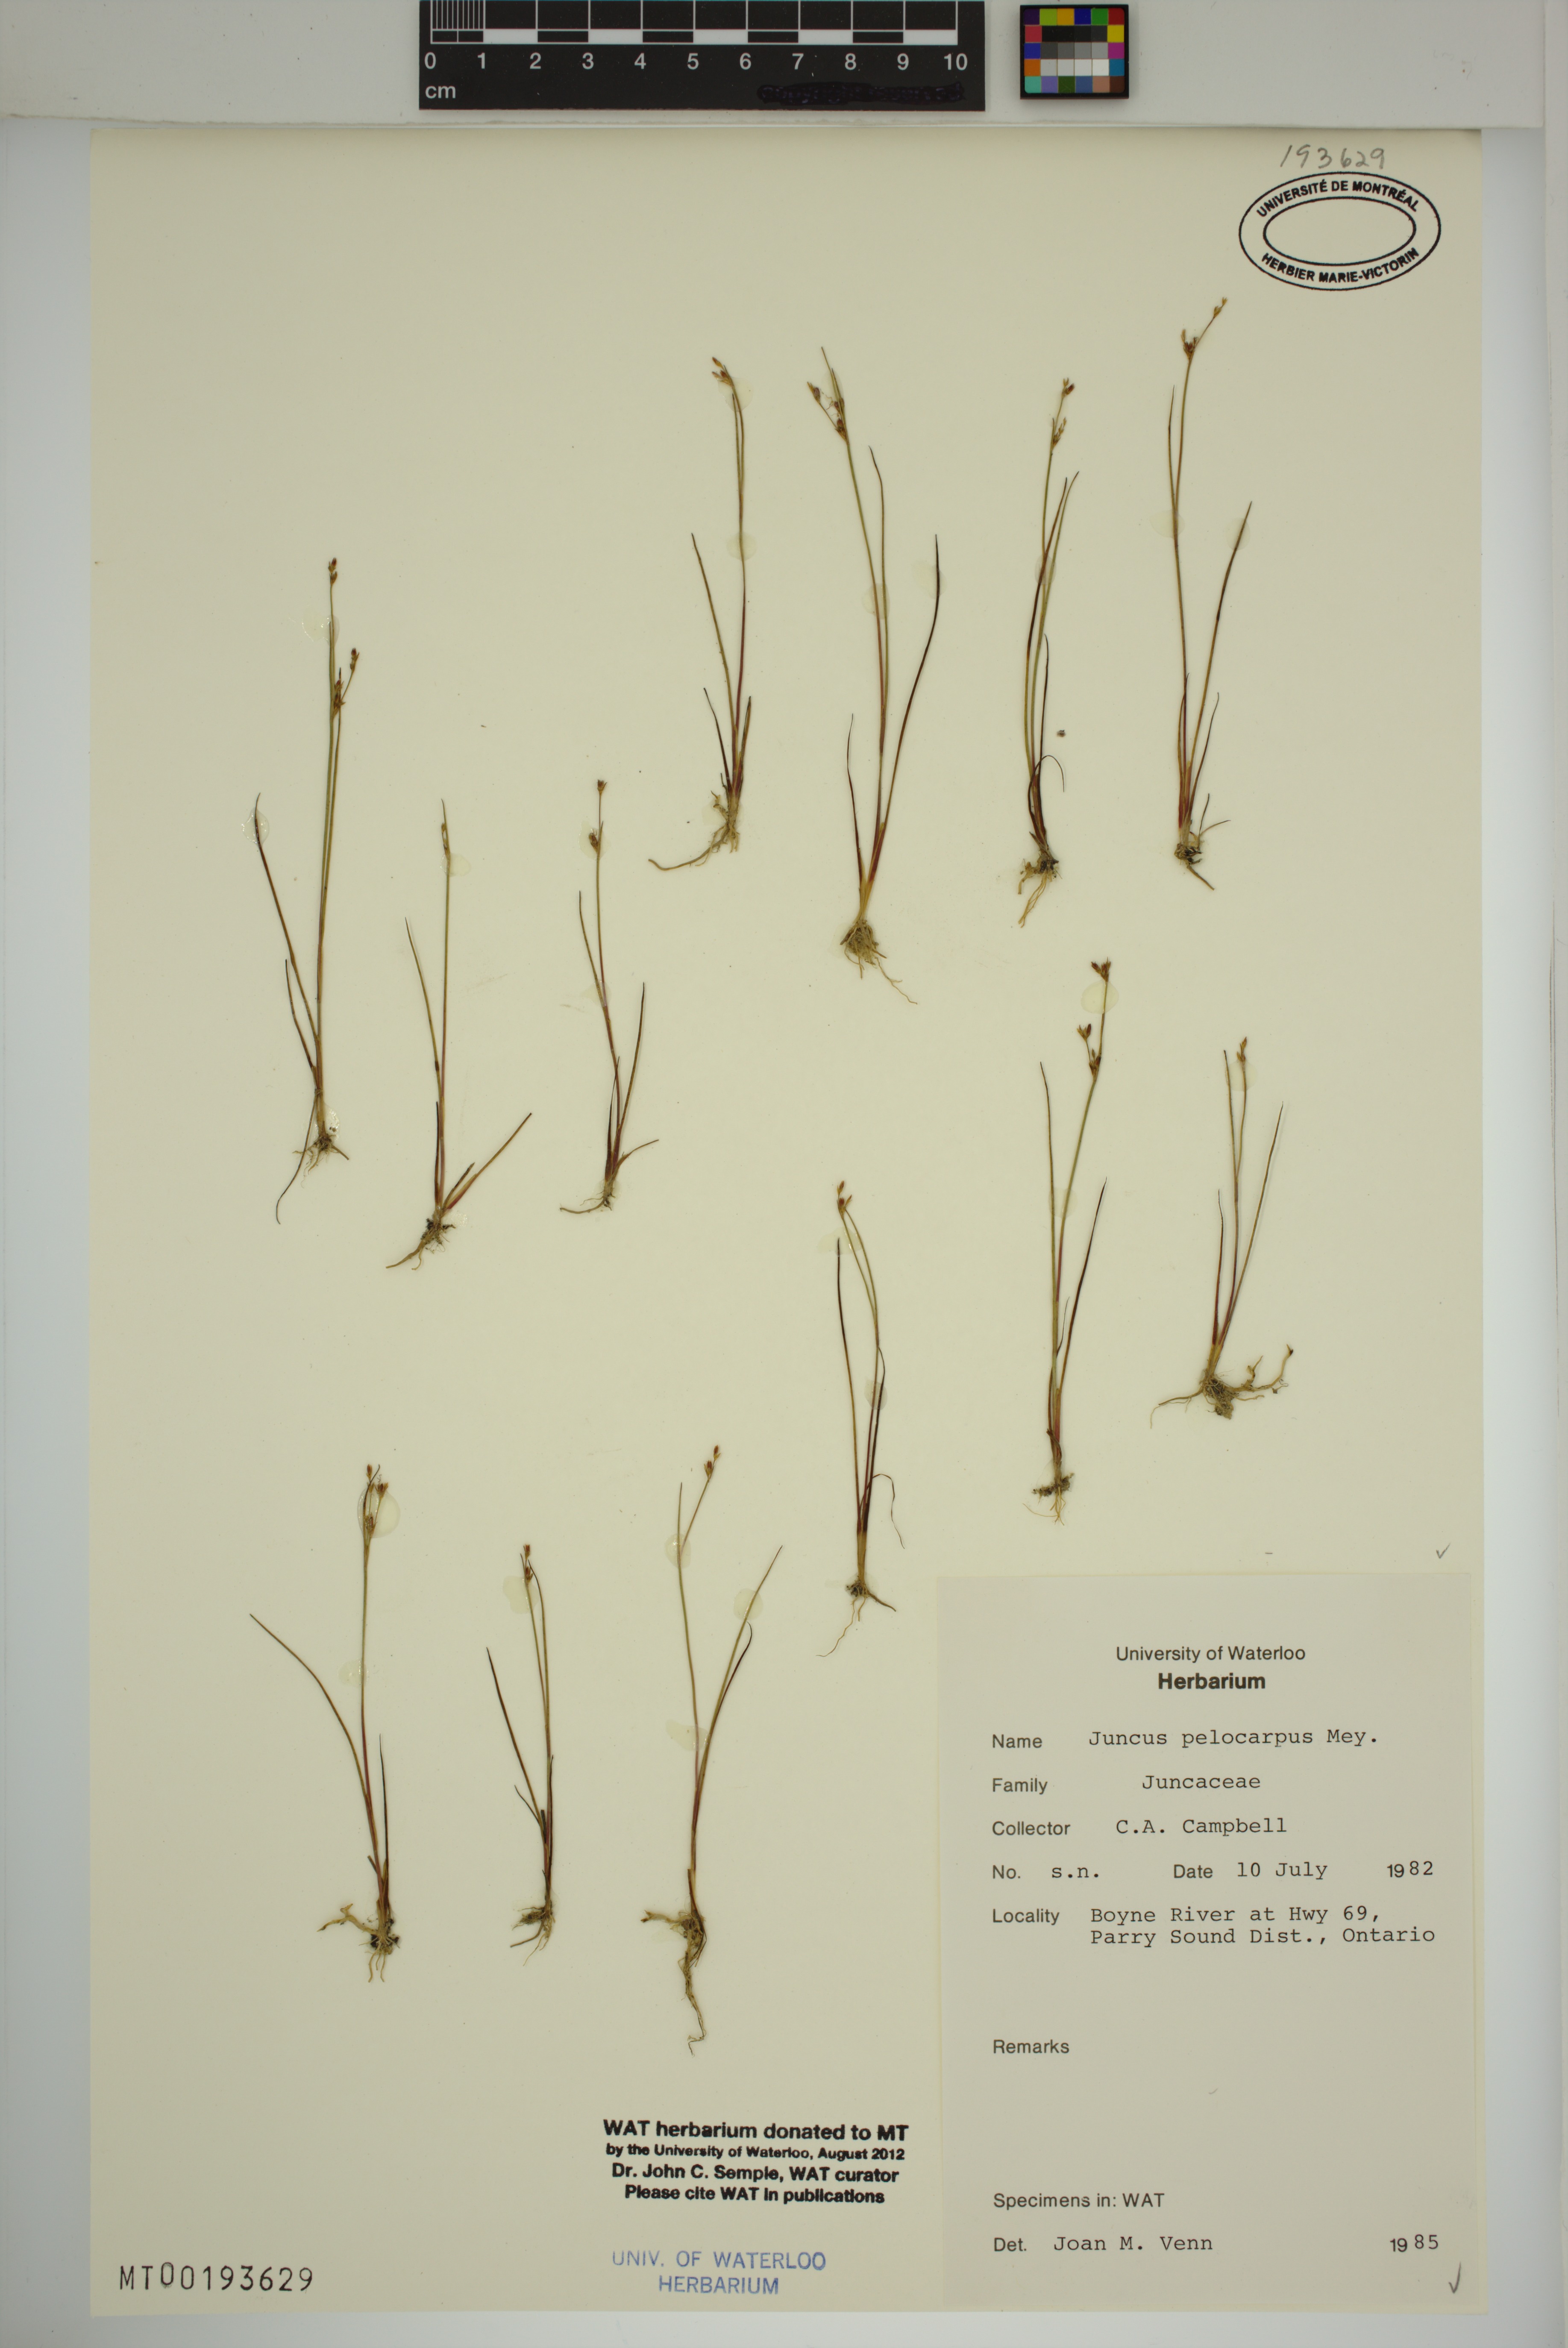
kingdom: Plantae
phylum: Tracheophyta
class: Liliopsida
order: Poales
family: Juncaceae
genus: Juncus
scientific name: Juncus pelocarpus
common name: Brown-fruited rush
